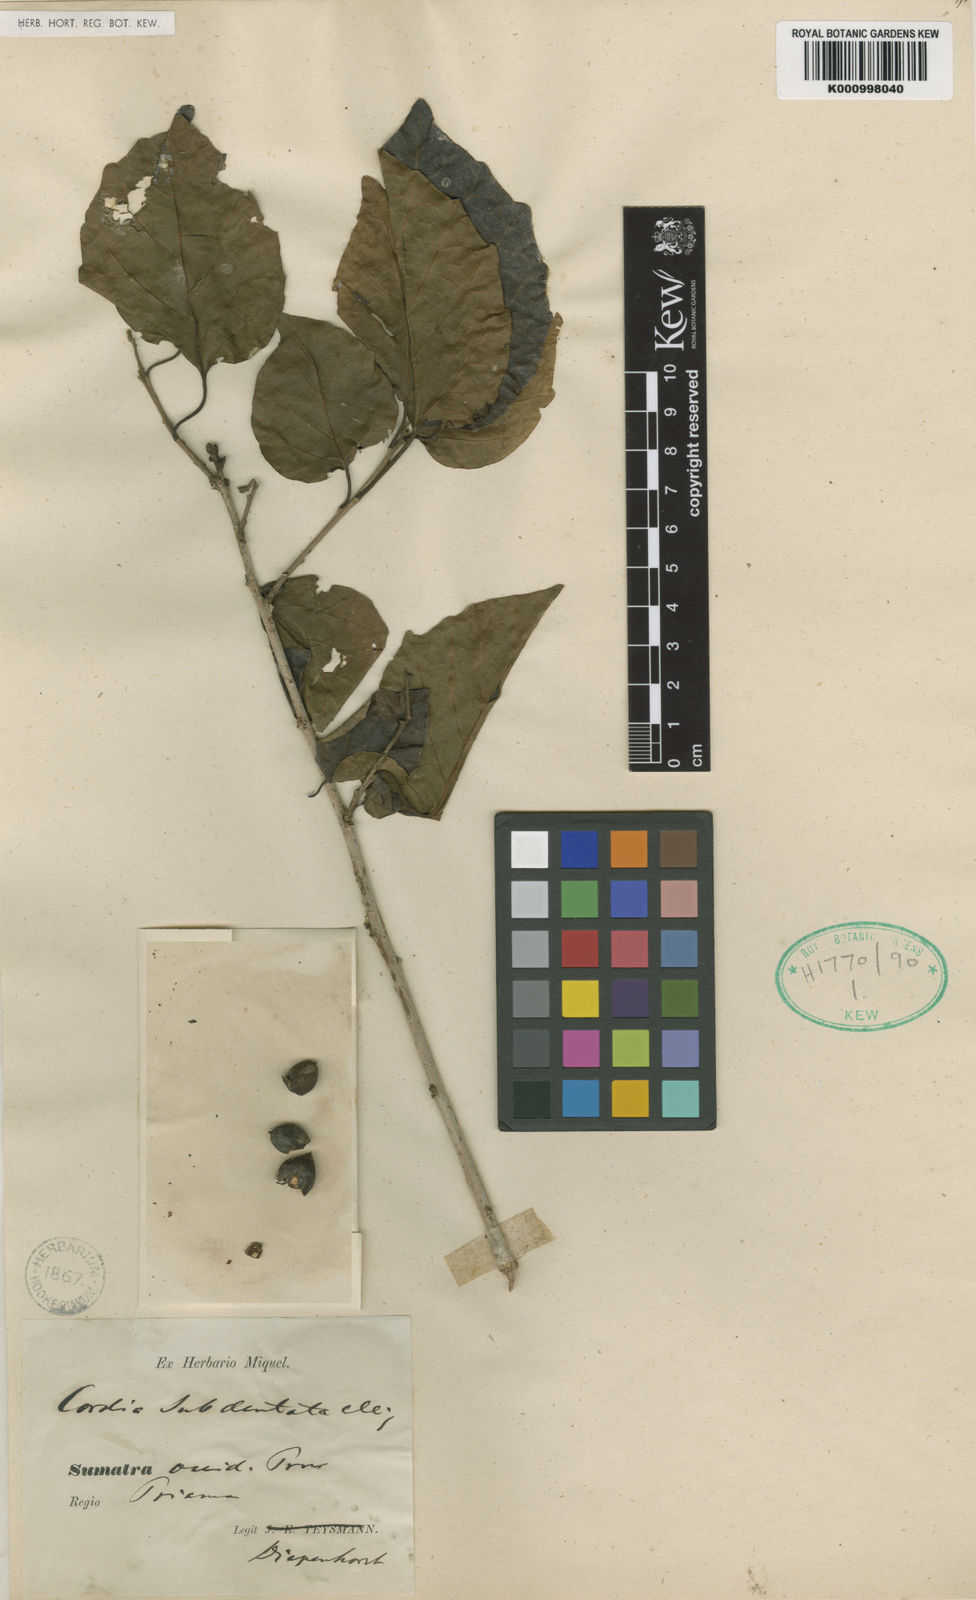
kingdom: Plantae
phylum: Tracheophyta
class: Magnoliopsida
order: Boraginales
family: Cordiaceae
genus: Cordia
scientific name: Cordia myxa
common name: Assyrian plum
